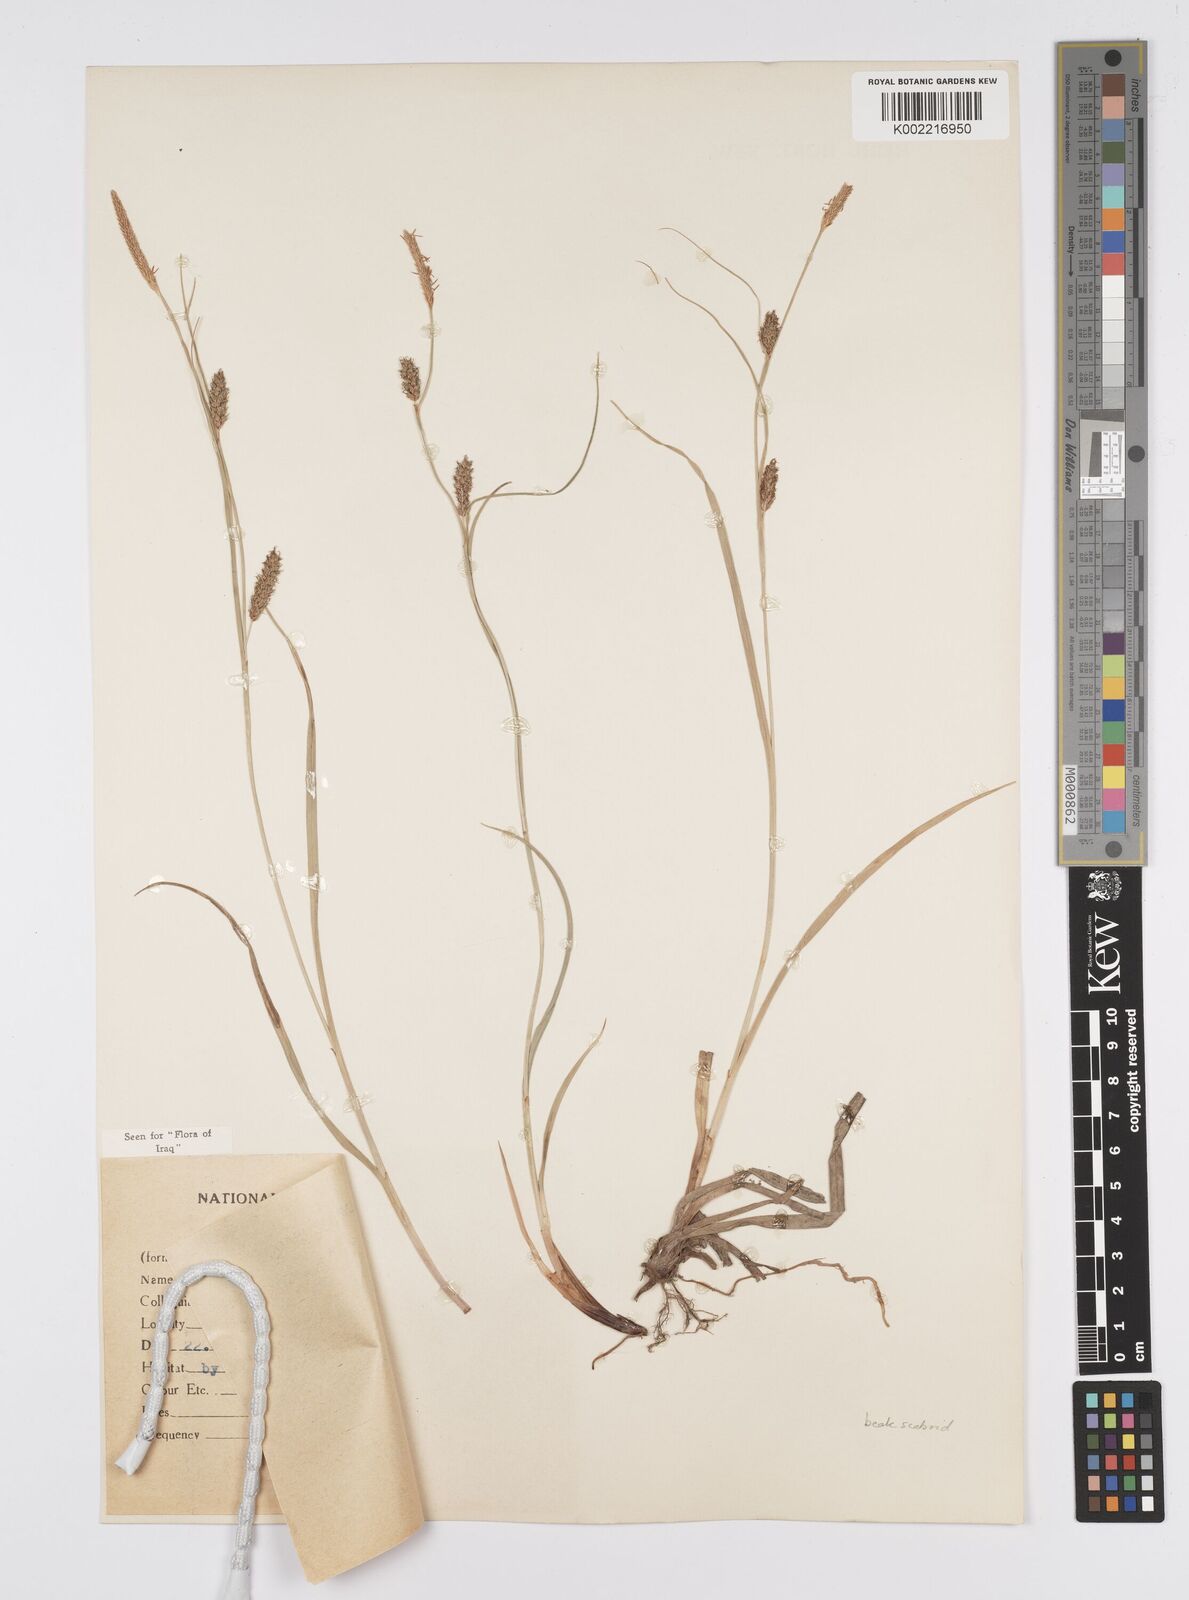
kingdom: Plantae
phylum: Tracheophyta
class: Liliopsida
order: Poales
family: Cyperaceae
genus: Carex
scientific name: Carex distans
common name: Distant sedge
